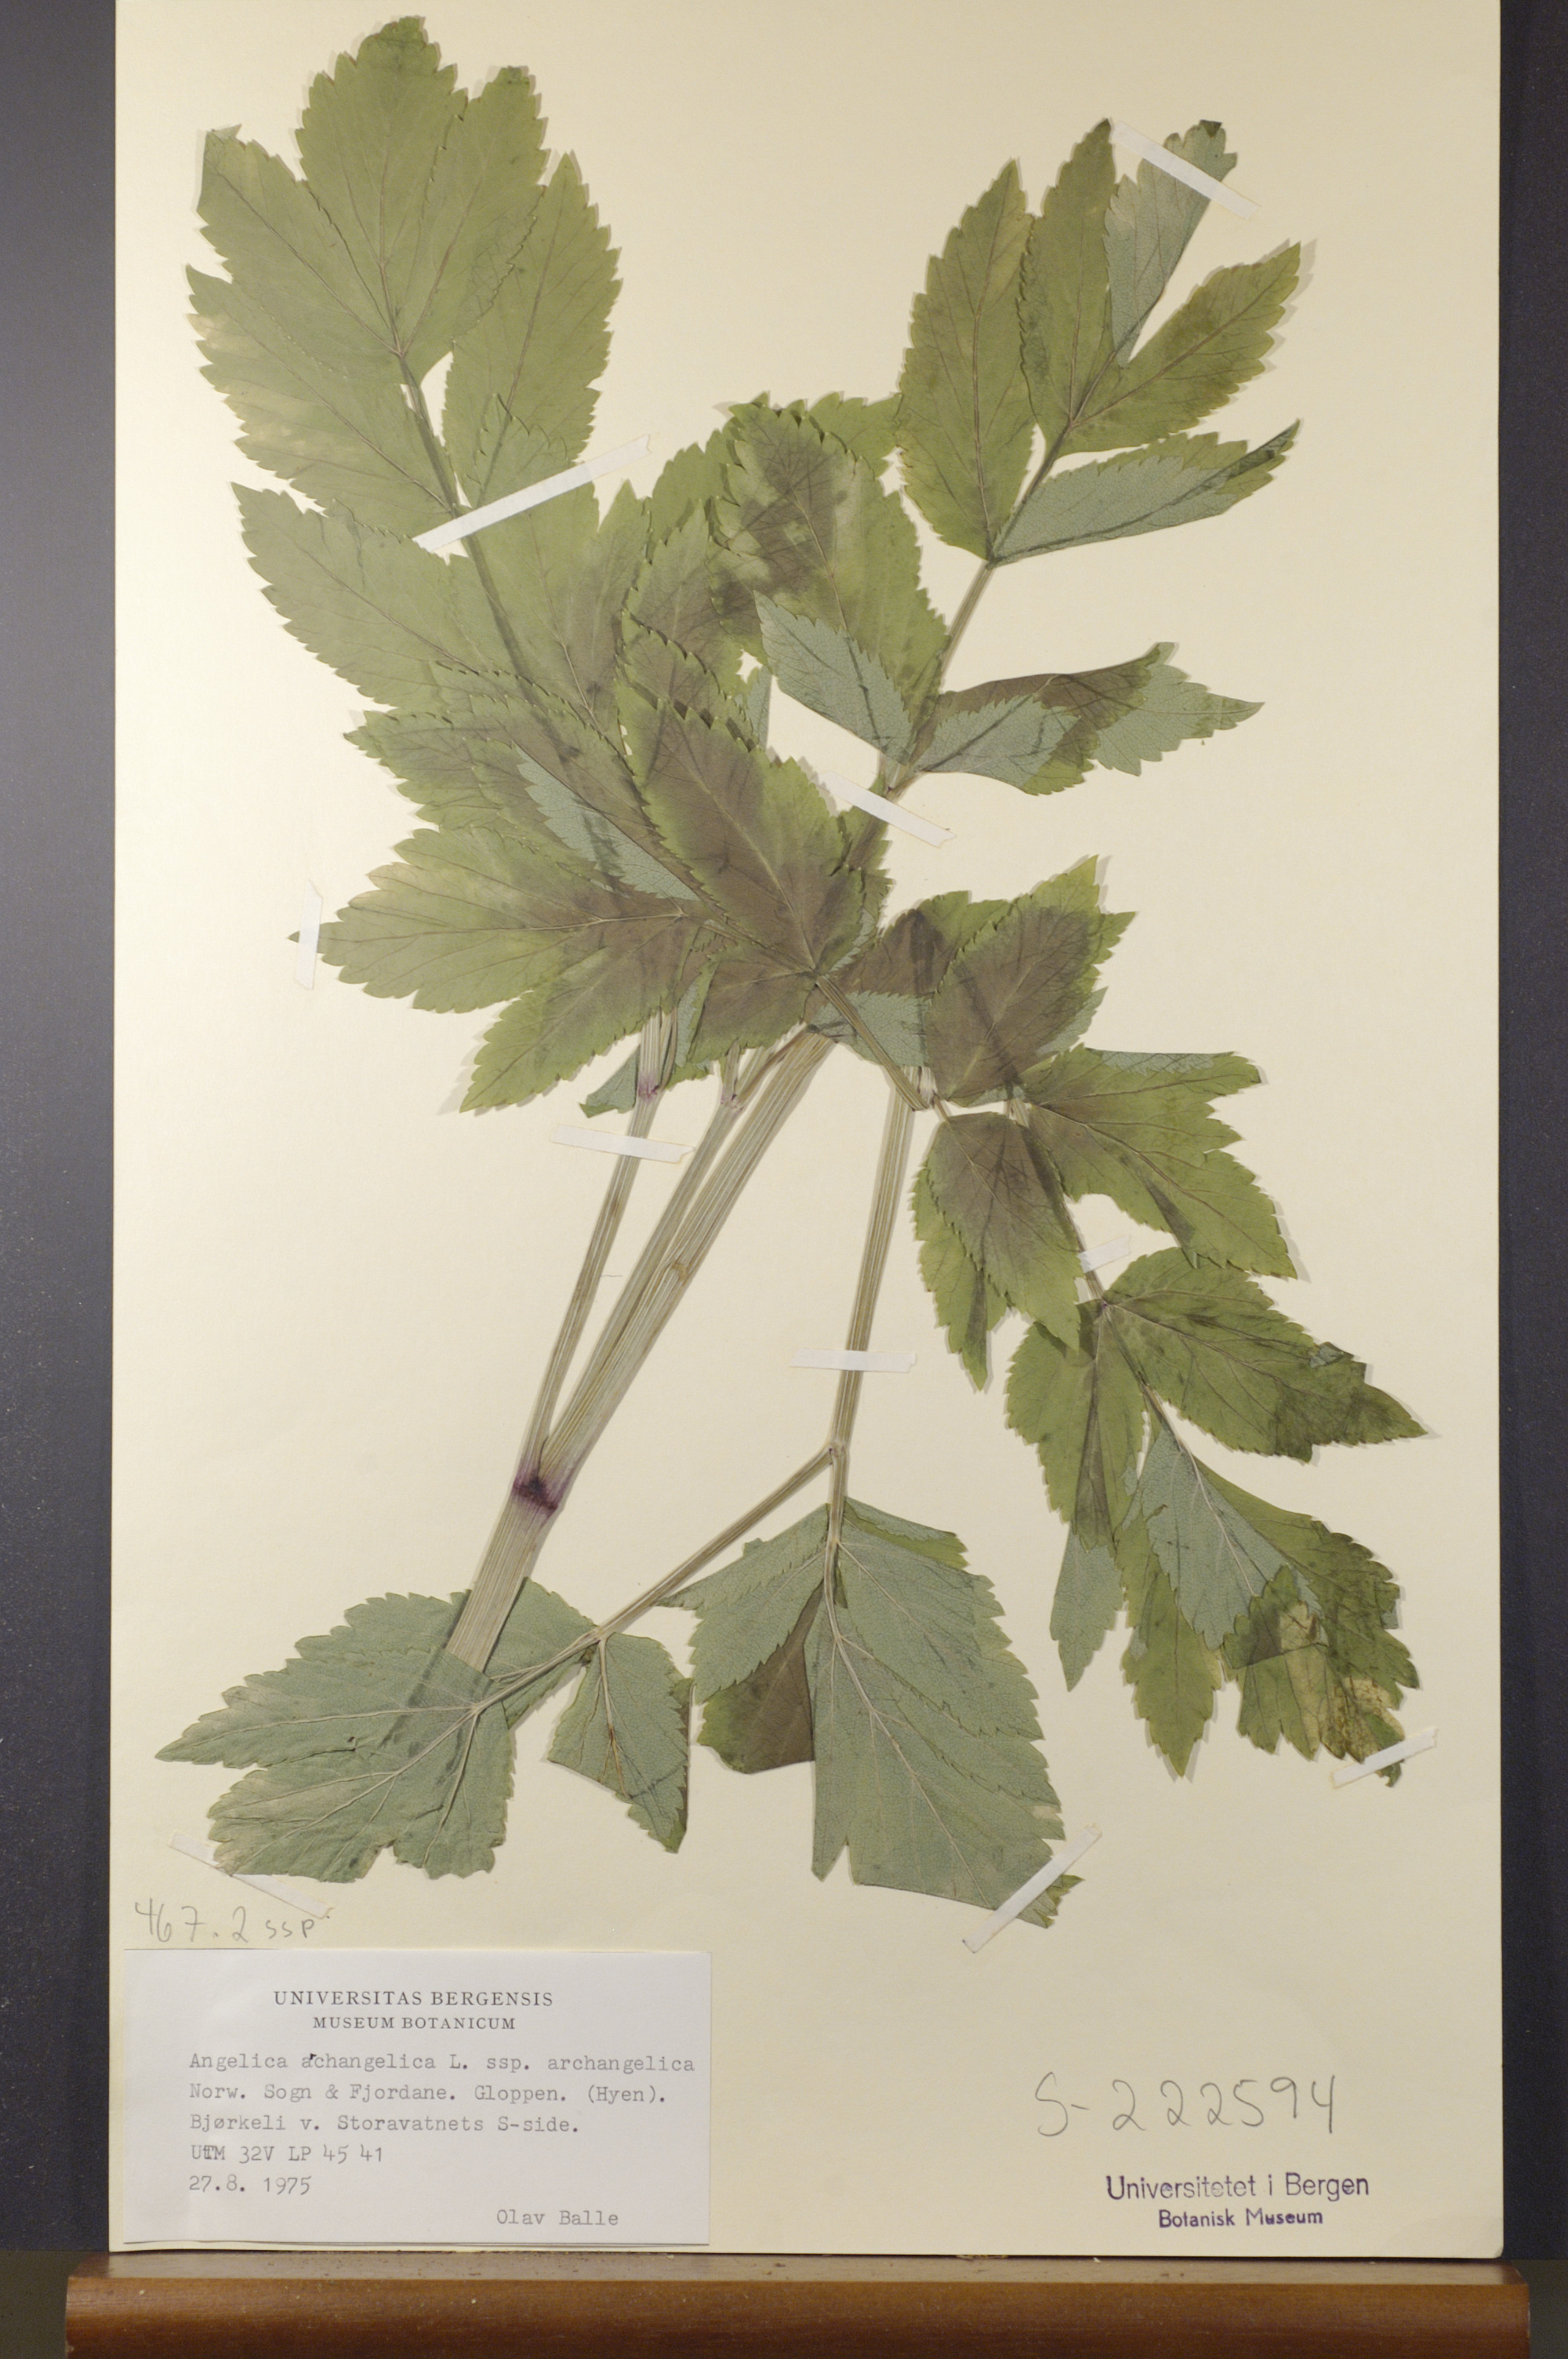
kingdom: Plantae
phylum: Tracheophyta
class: Magnoliopsida
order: Apiales
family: Apiaceae
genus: Angelica
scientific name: Angelica archangelica
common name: Garden angelica
